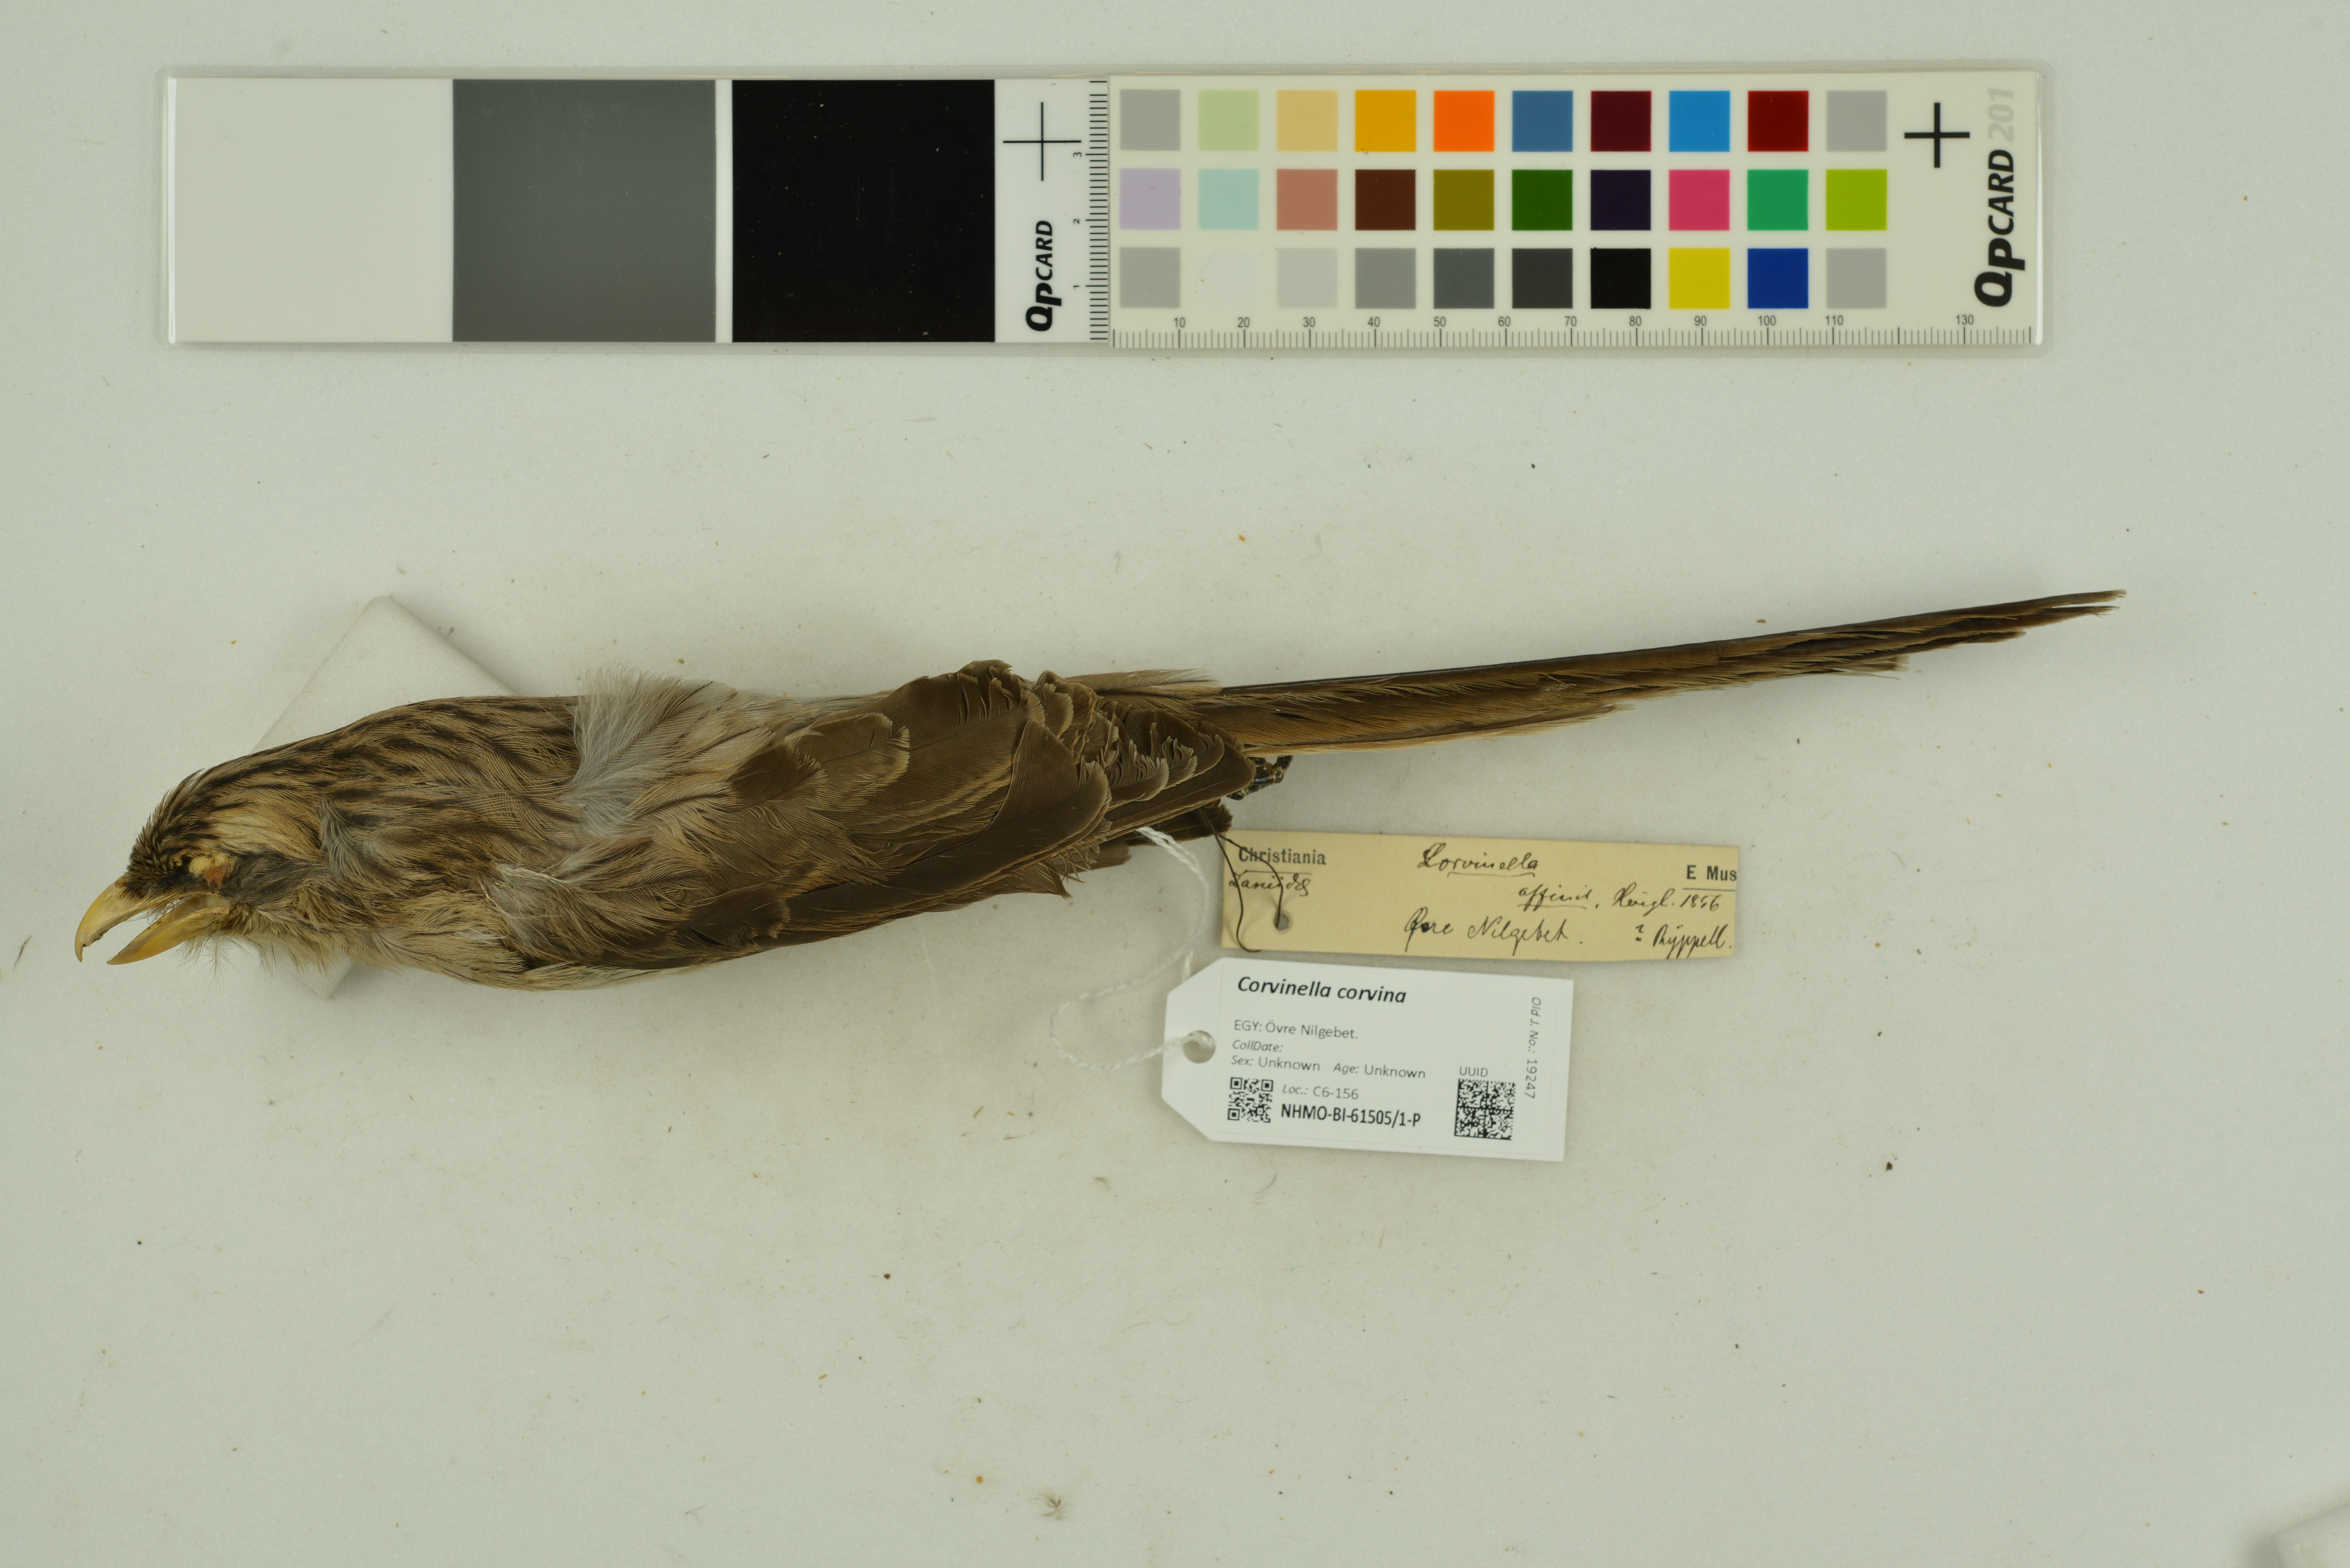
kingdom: Animalia
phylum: Chordata
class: Aves
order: Passeriformes
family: Laniidae
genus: Corvinella
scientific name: Corvinella corvina
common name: Yellow-billed shrike
